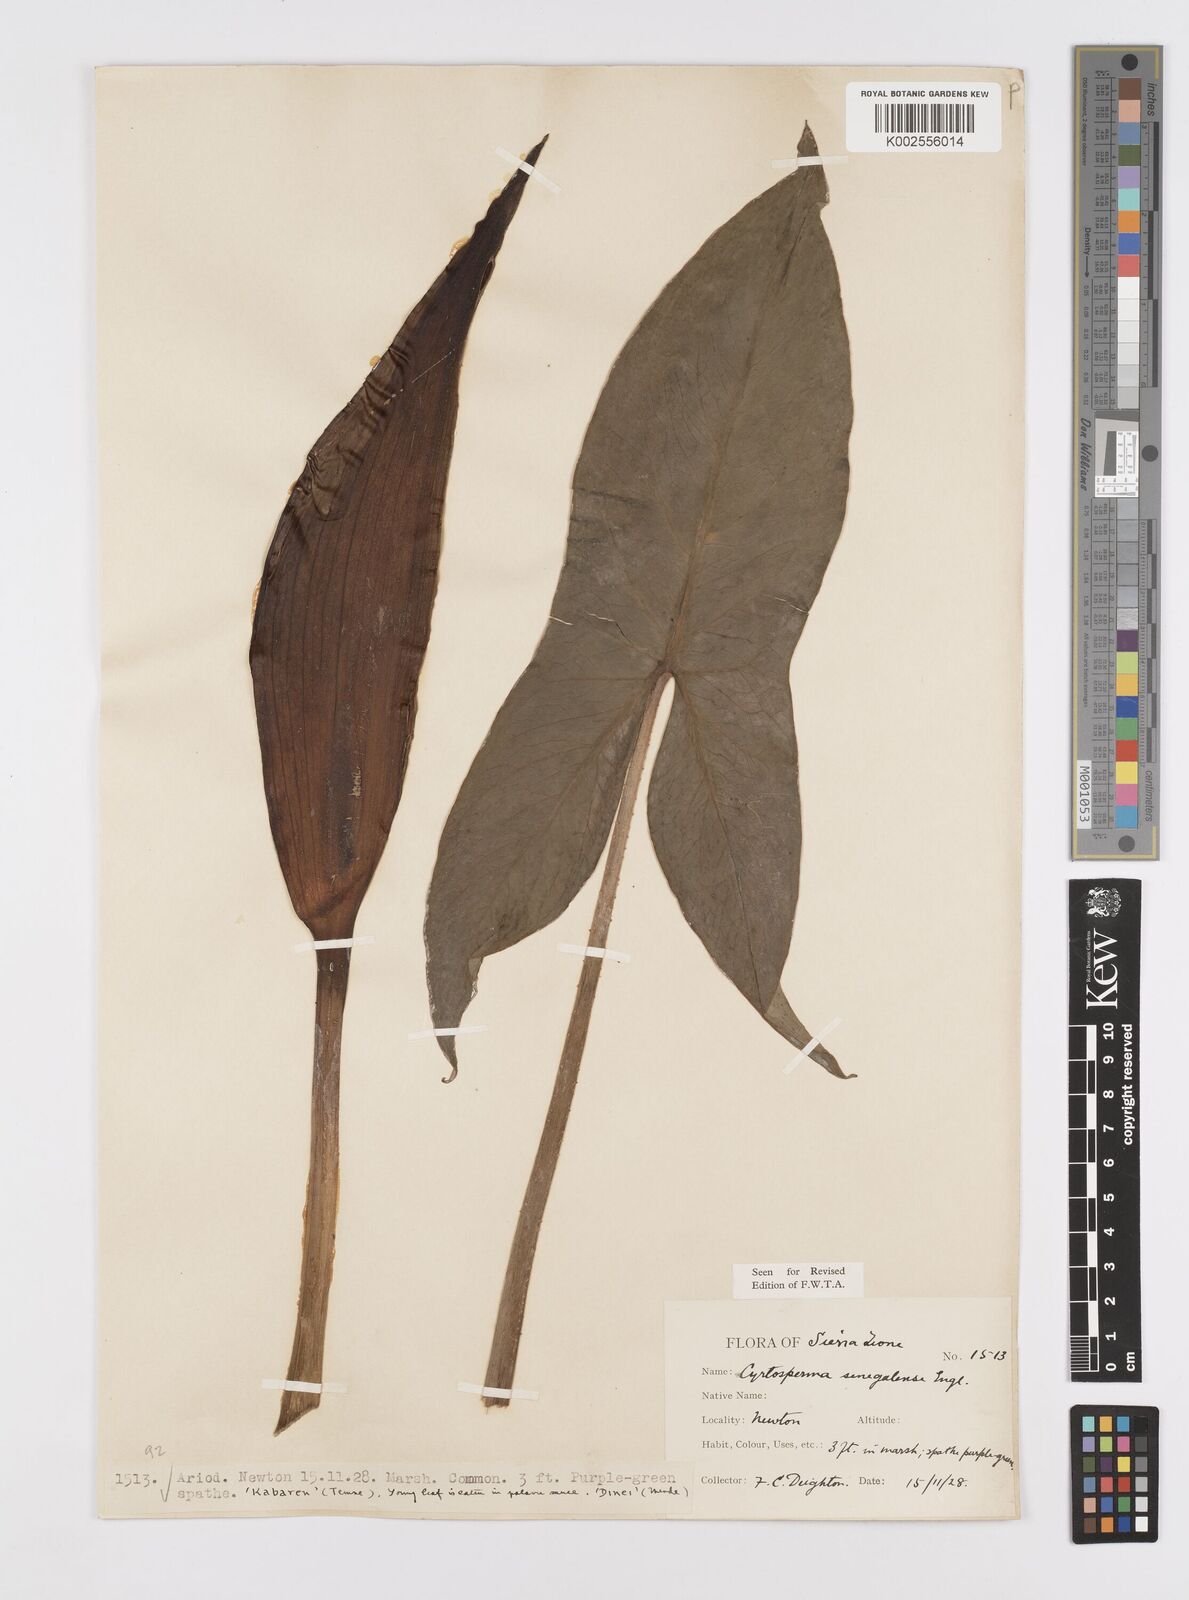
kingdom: Plantae
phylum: Tracheophyta
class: Liliopsida
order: Alismatales
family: Araceae
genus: Lasimorpha
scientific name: Lasimorpha senegalensis
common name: Swamp arum
